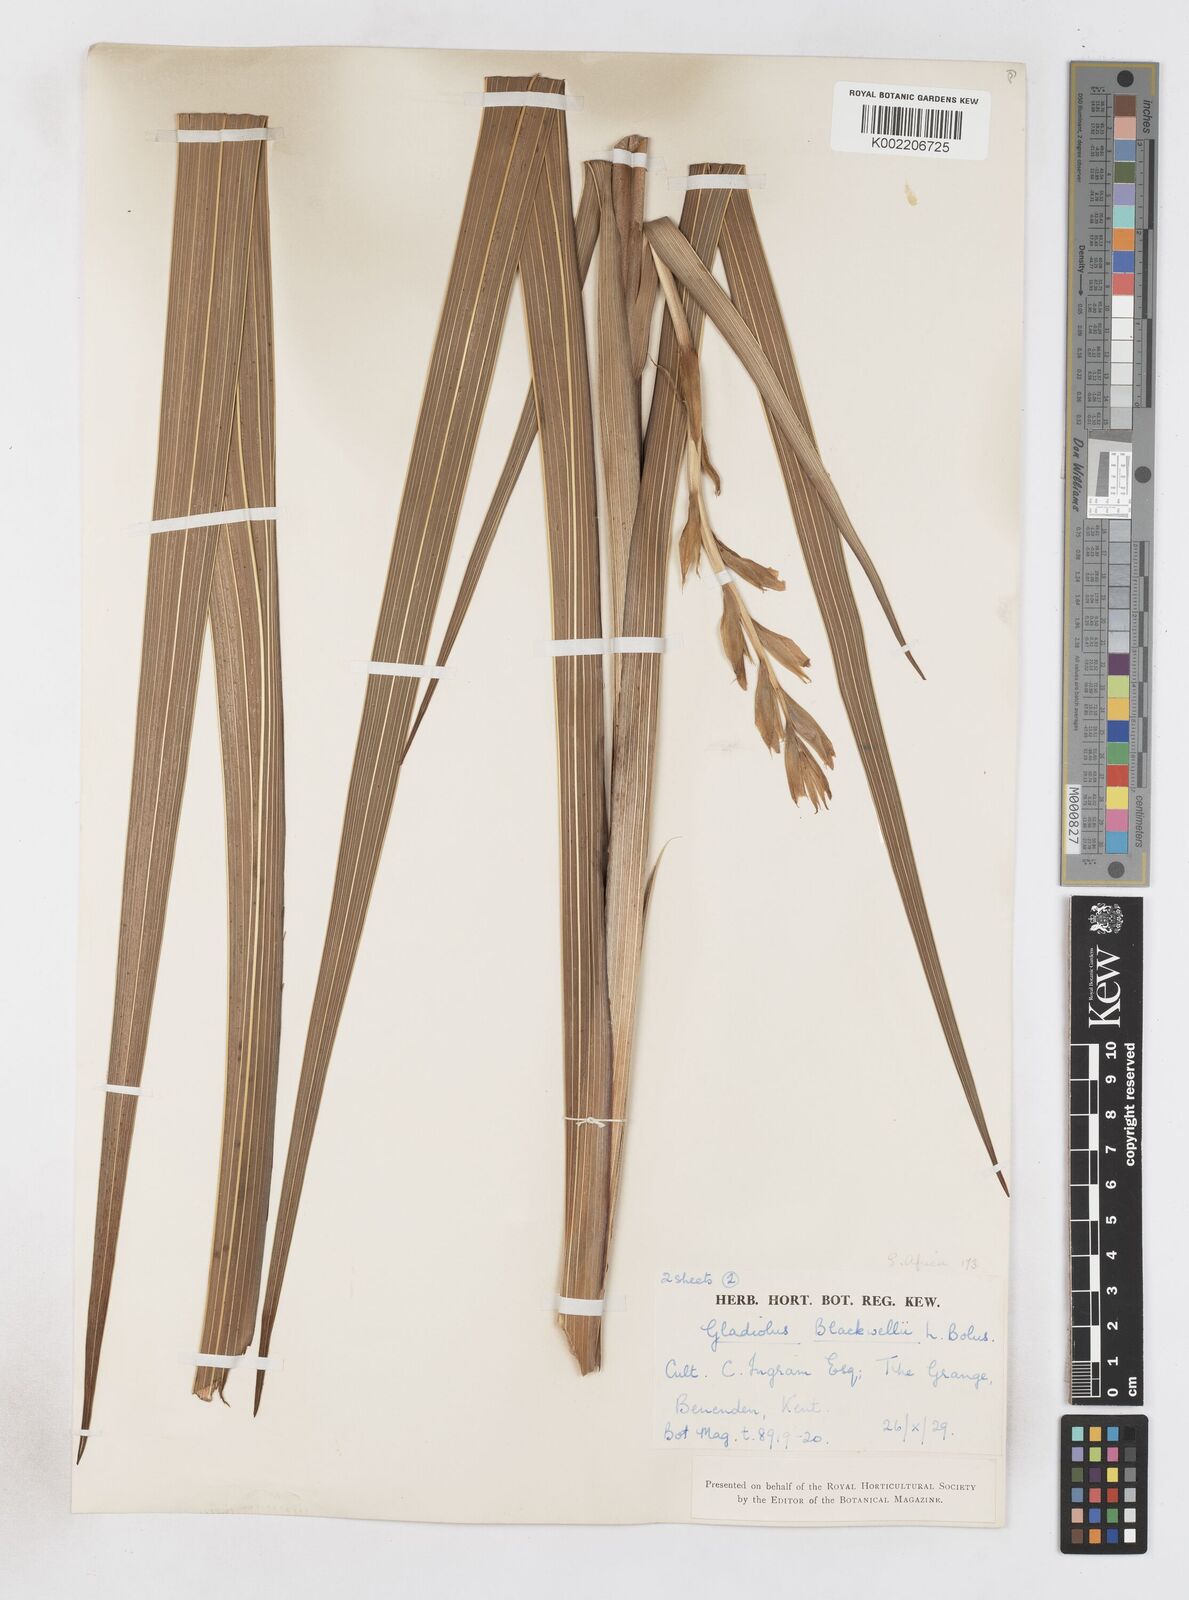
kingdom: Plantae
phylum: Tracheophyta
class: Liliopsida
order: Asparagales
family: Iridaceae
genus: Gladiolus
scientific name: Gladiolus oppositiflorus
